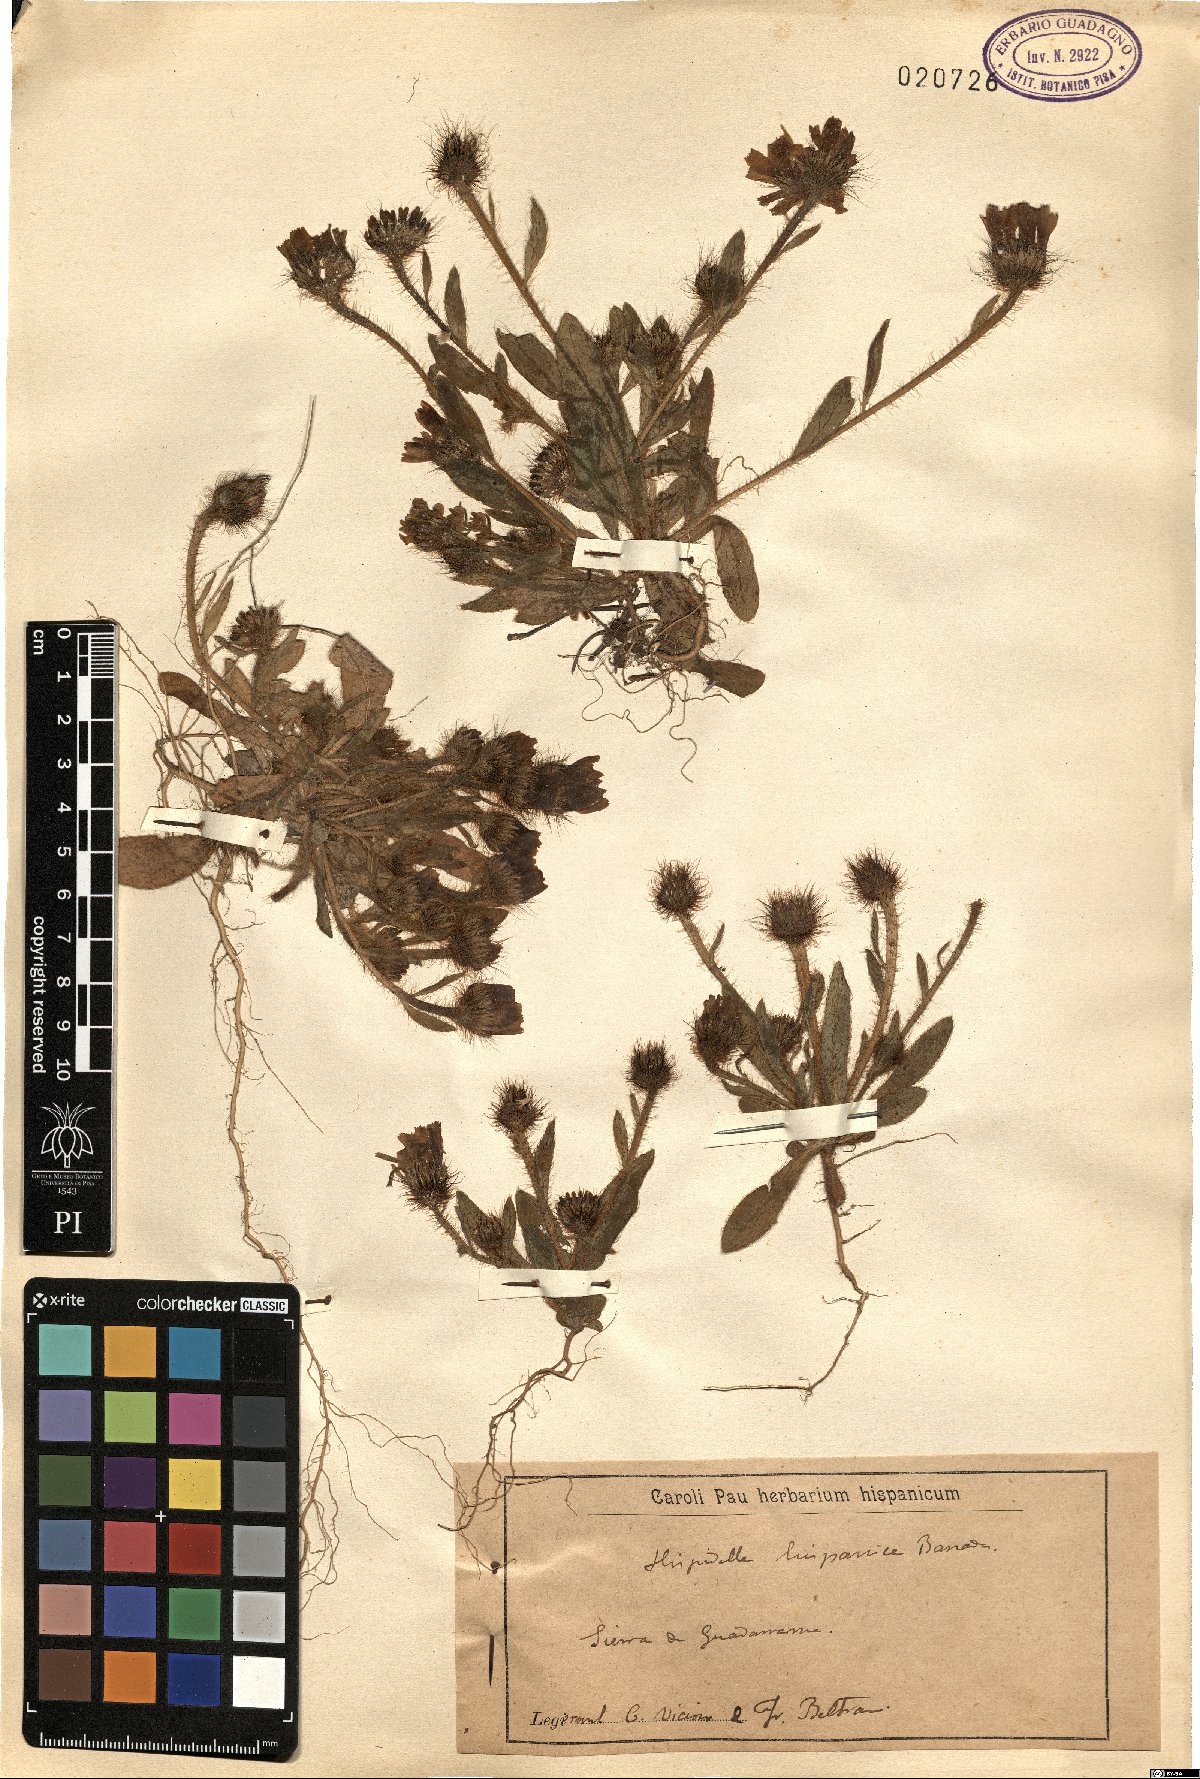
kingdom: Plantae
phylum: Tracheophyta
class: Magnoliopsida
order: Asterales
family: Asteraceae
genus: Hispidella
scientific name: Hispidella hispanica
